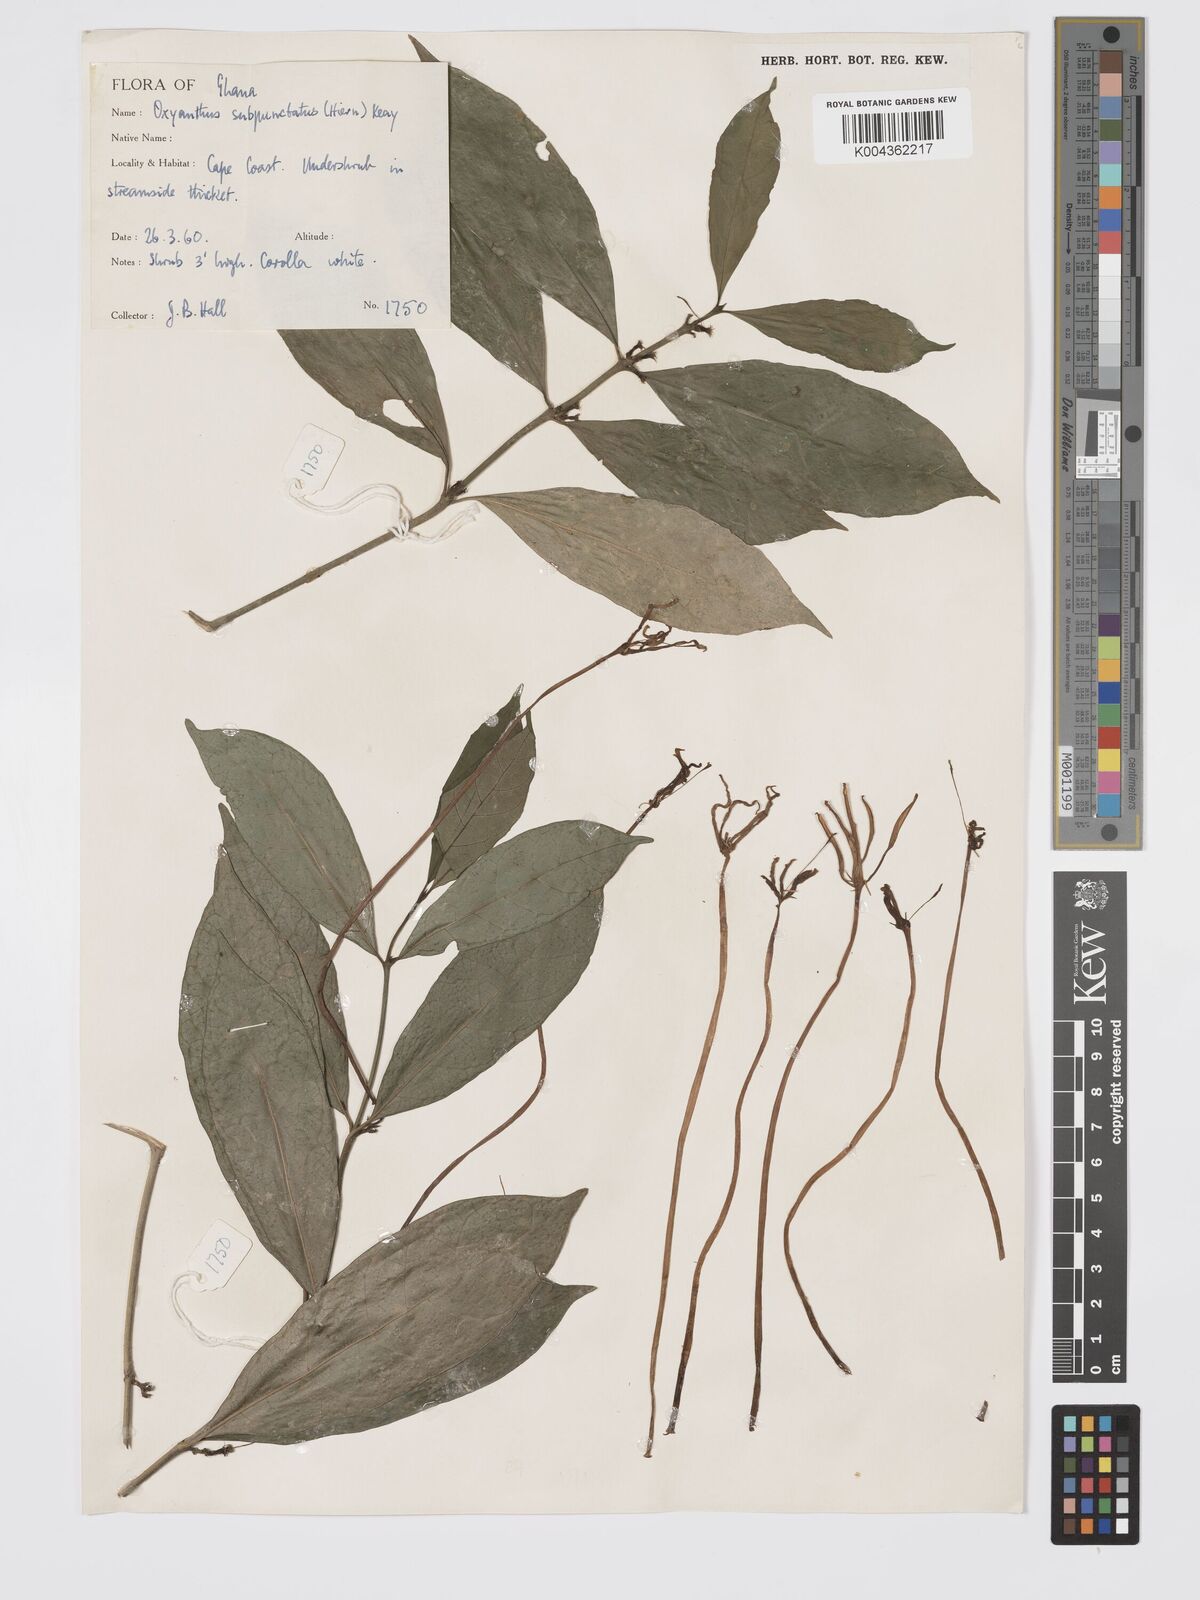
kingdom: Plantae
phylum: Tracheophyta
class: Magnoliopsida
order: Gentianales
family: Rubiaceae
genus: Oxyanthus
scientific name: Oxyanthus subpunctatus
